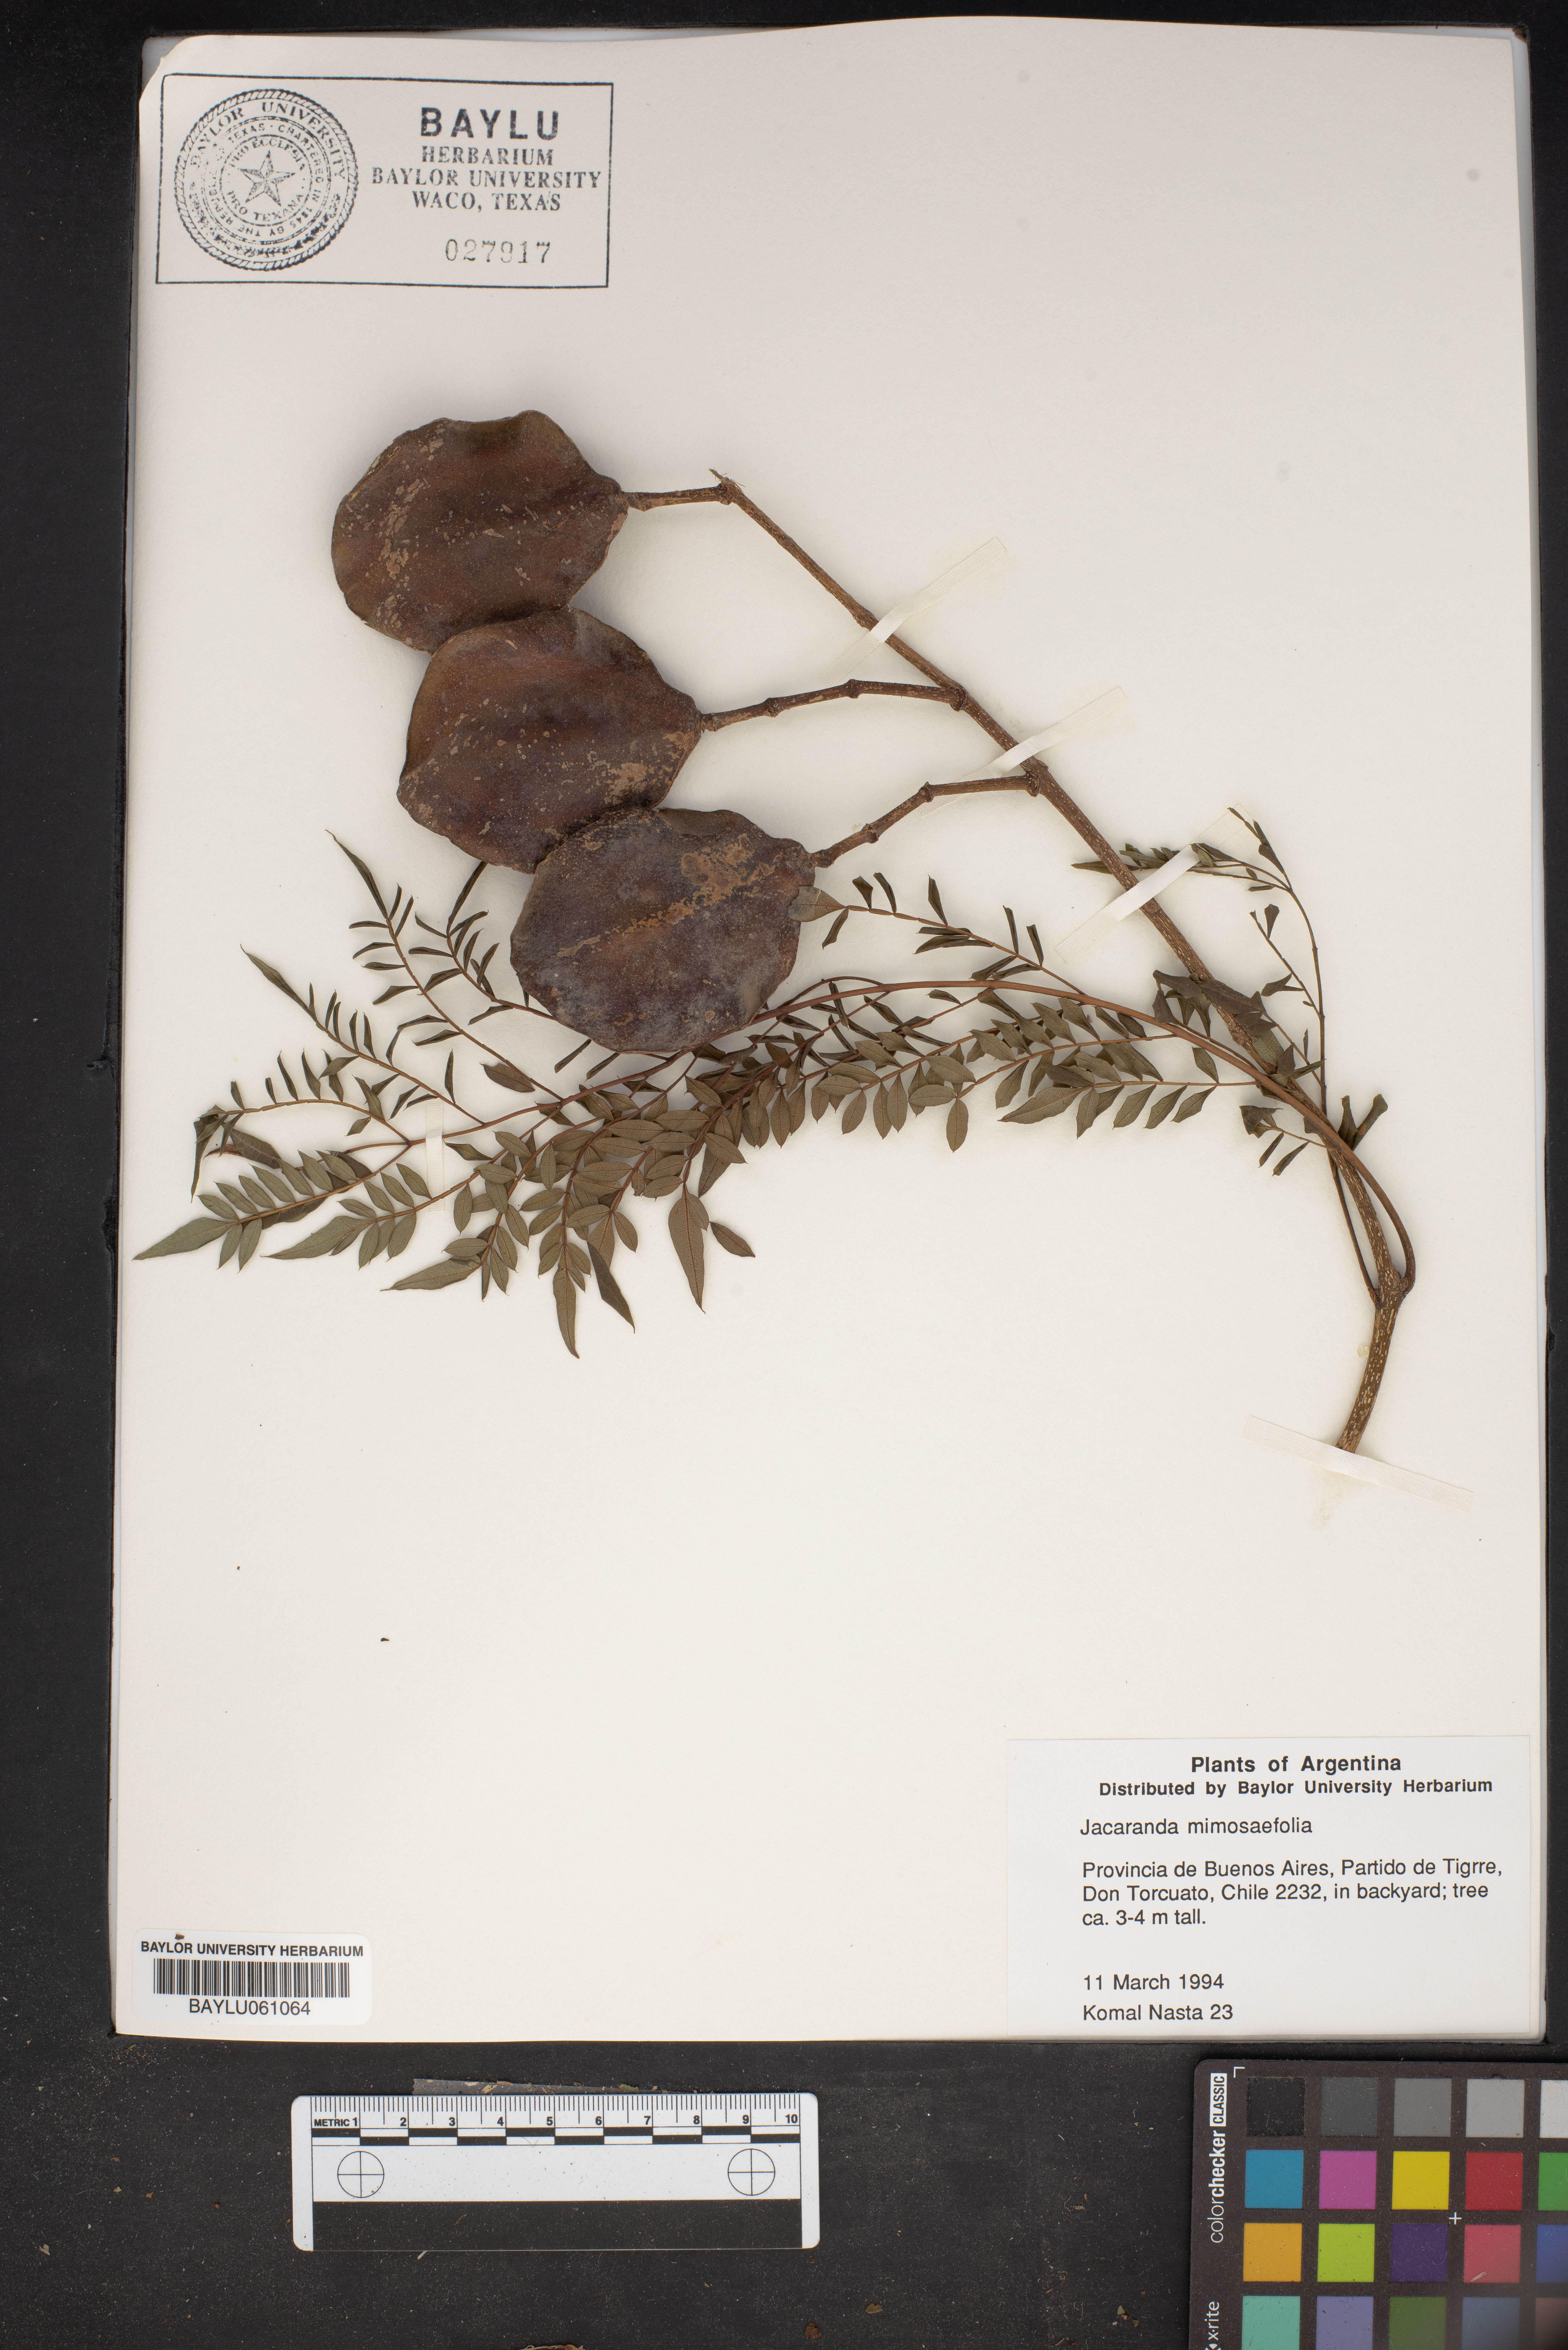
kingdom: Plantae
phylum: Tracheophyta
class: Magnoliopsida
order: Lamiales
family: Bignoniaceae
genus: Jacaranda
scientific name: Jacaranda mimosifolia
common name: Black poui
